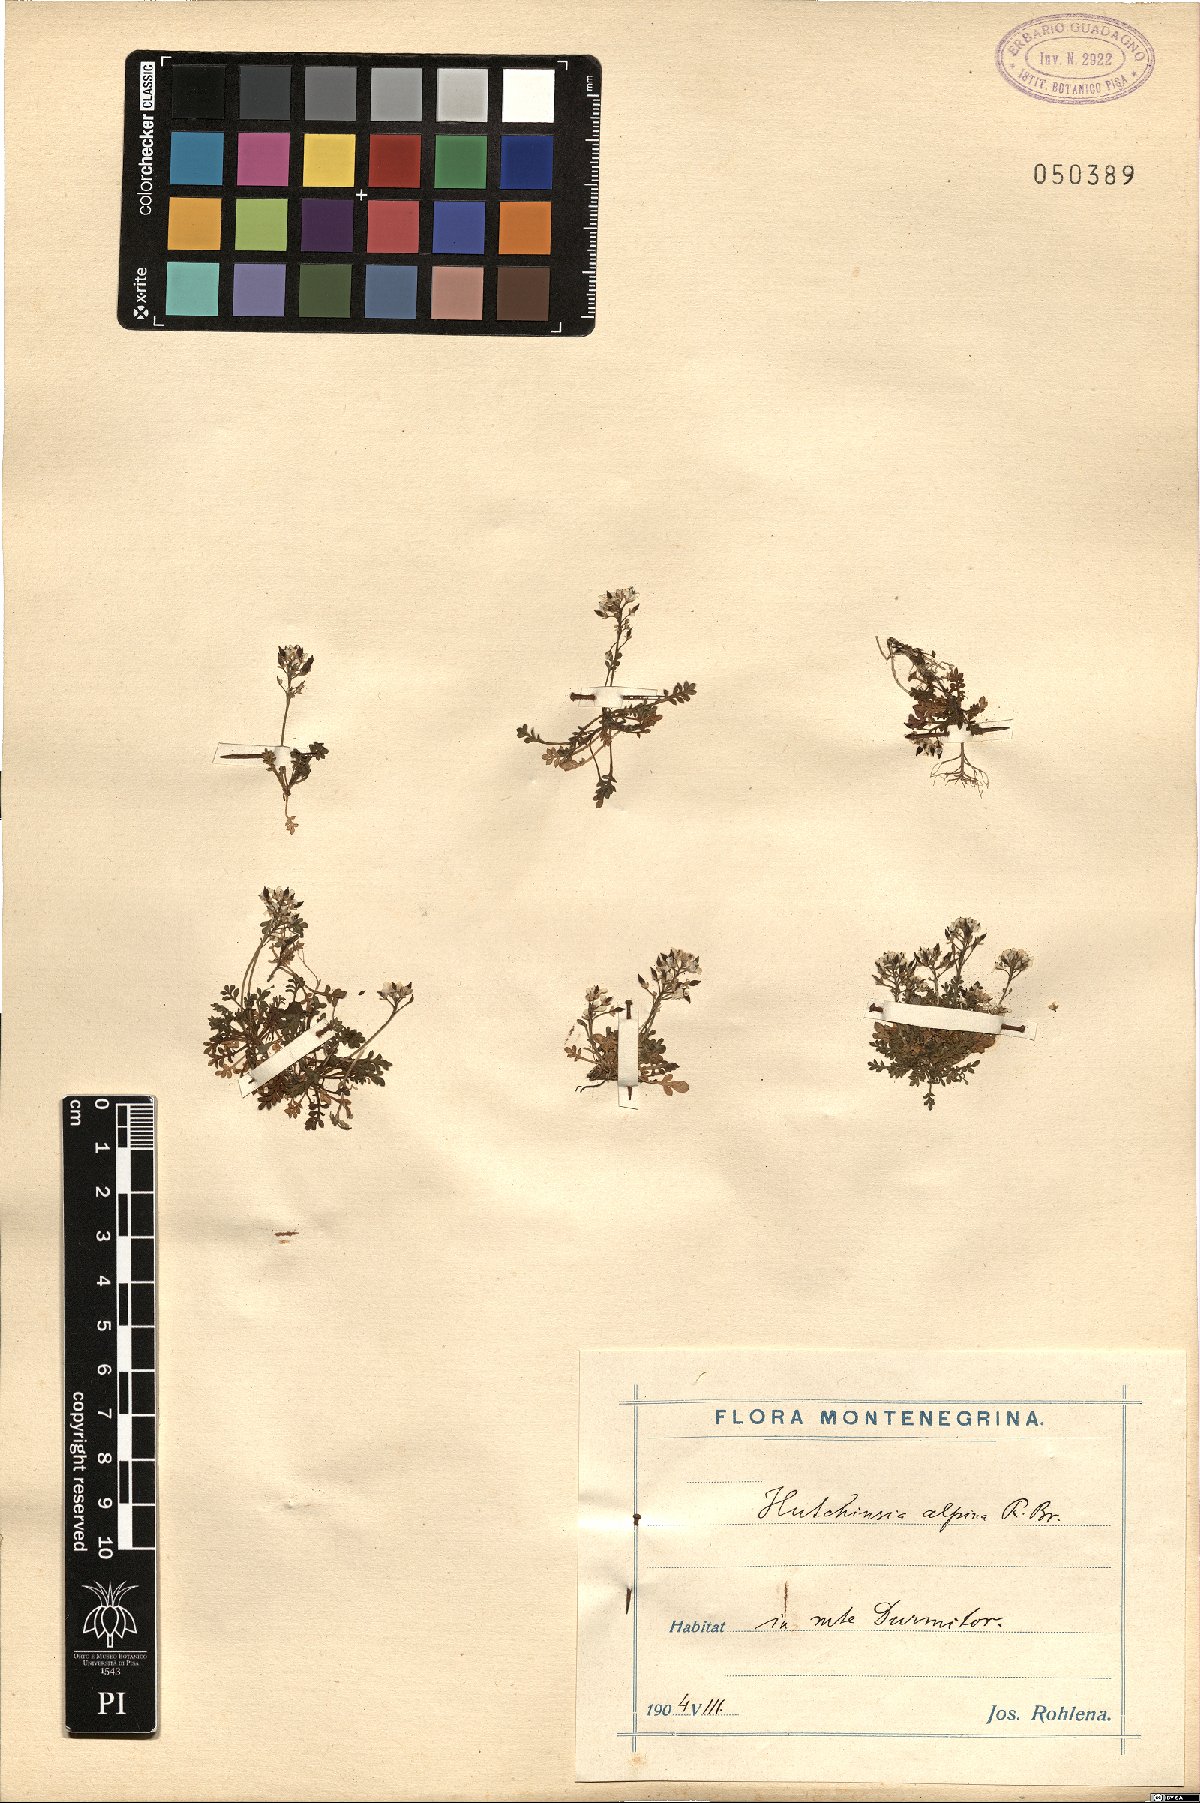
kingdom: Plantae
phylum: Tracheophyta
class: Magnoliopsida
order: Brassicales
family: Brassicaceae
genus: Hornungia
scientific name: Hornungia alpina
